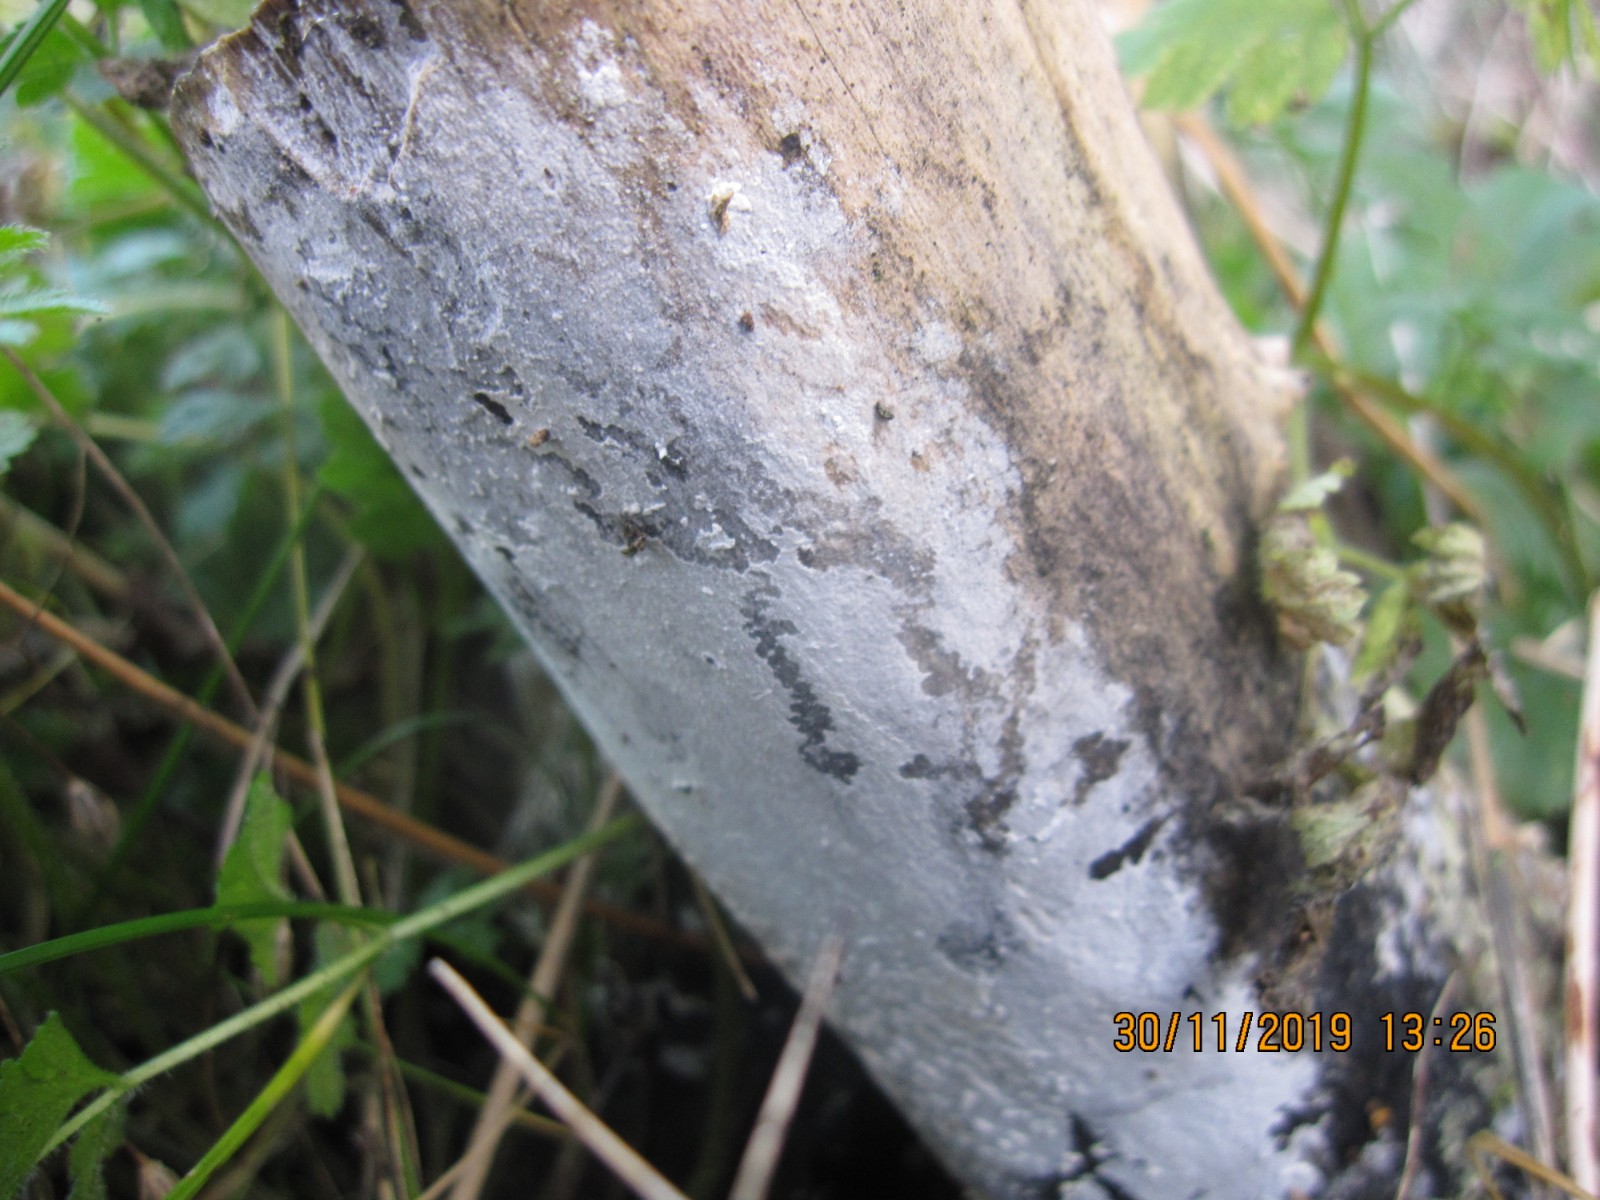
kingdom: Fungi
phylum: Basidiomycota
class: Agaricomycetes
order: Corticiales
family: Corticiaceae
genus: Lyomyces
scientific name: Lyomyces sambuci
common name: almindelig hyldehinde
